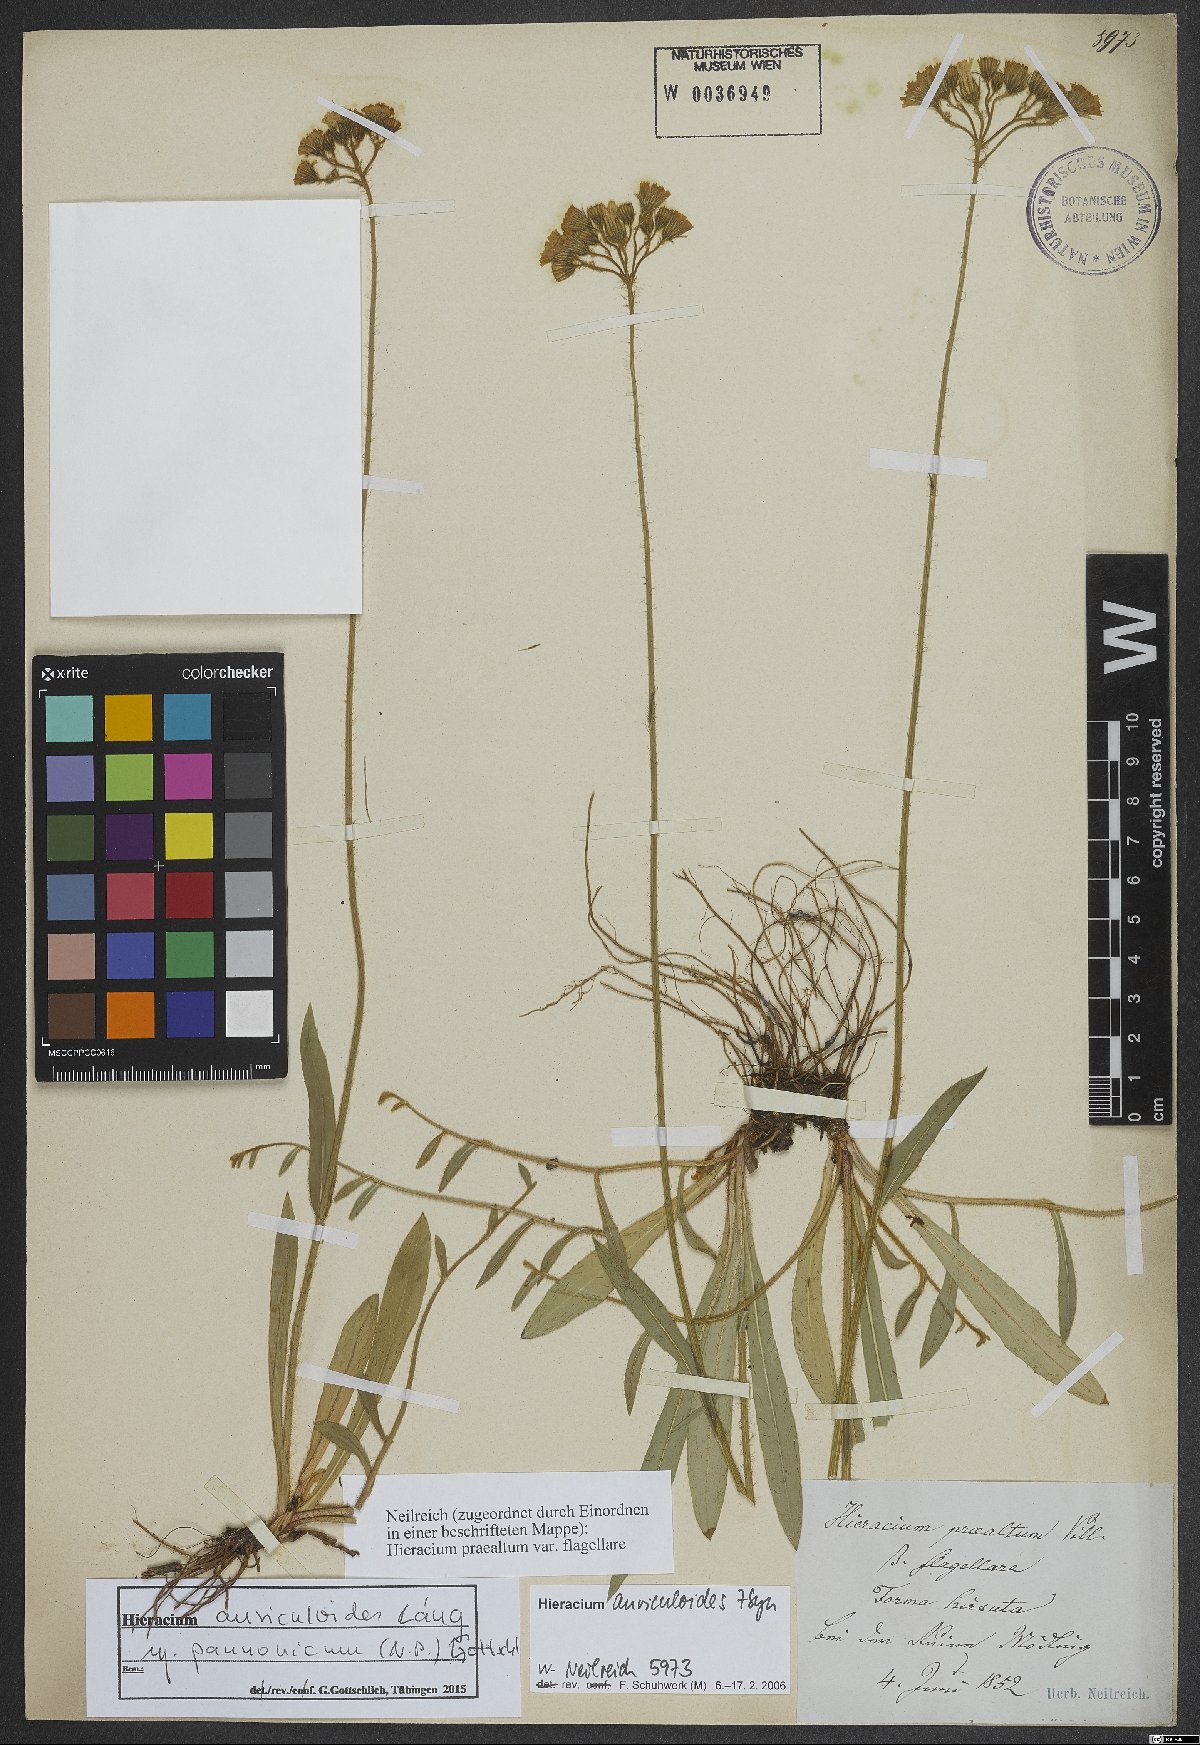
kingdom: Plantae
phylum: Tracheophyta
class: Magnoliopsida
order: Asterales
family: Asteraceae
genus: Pilosella
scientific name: Pilosella auriculoides
